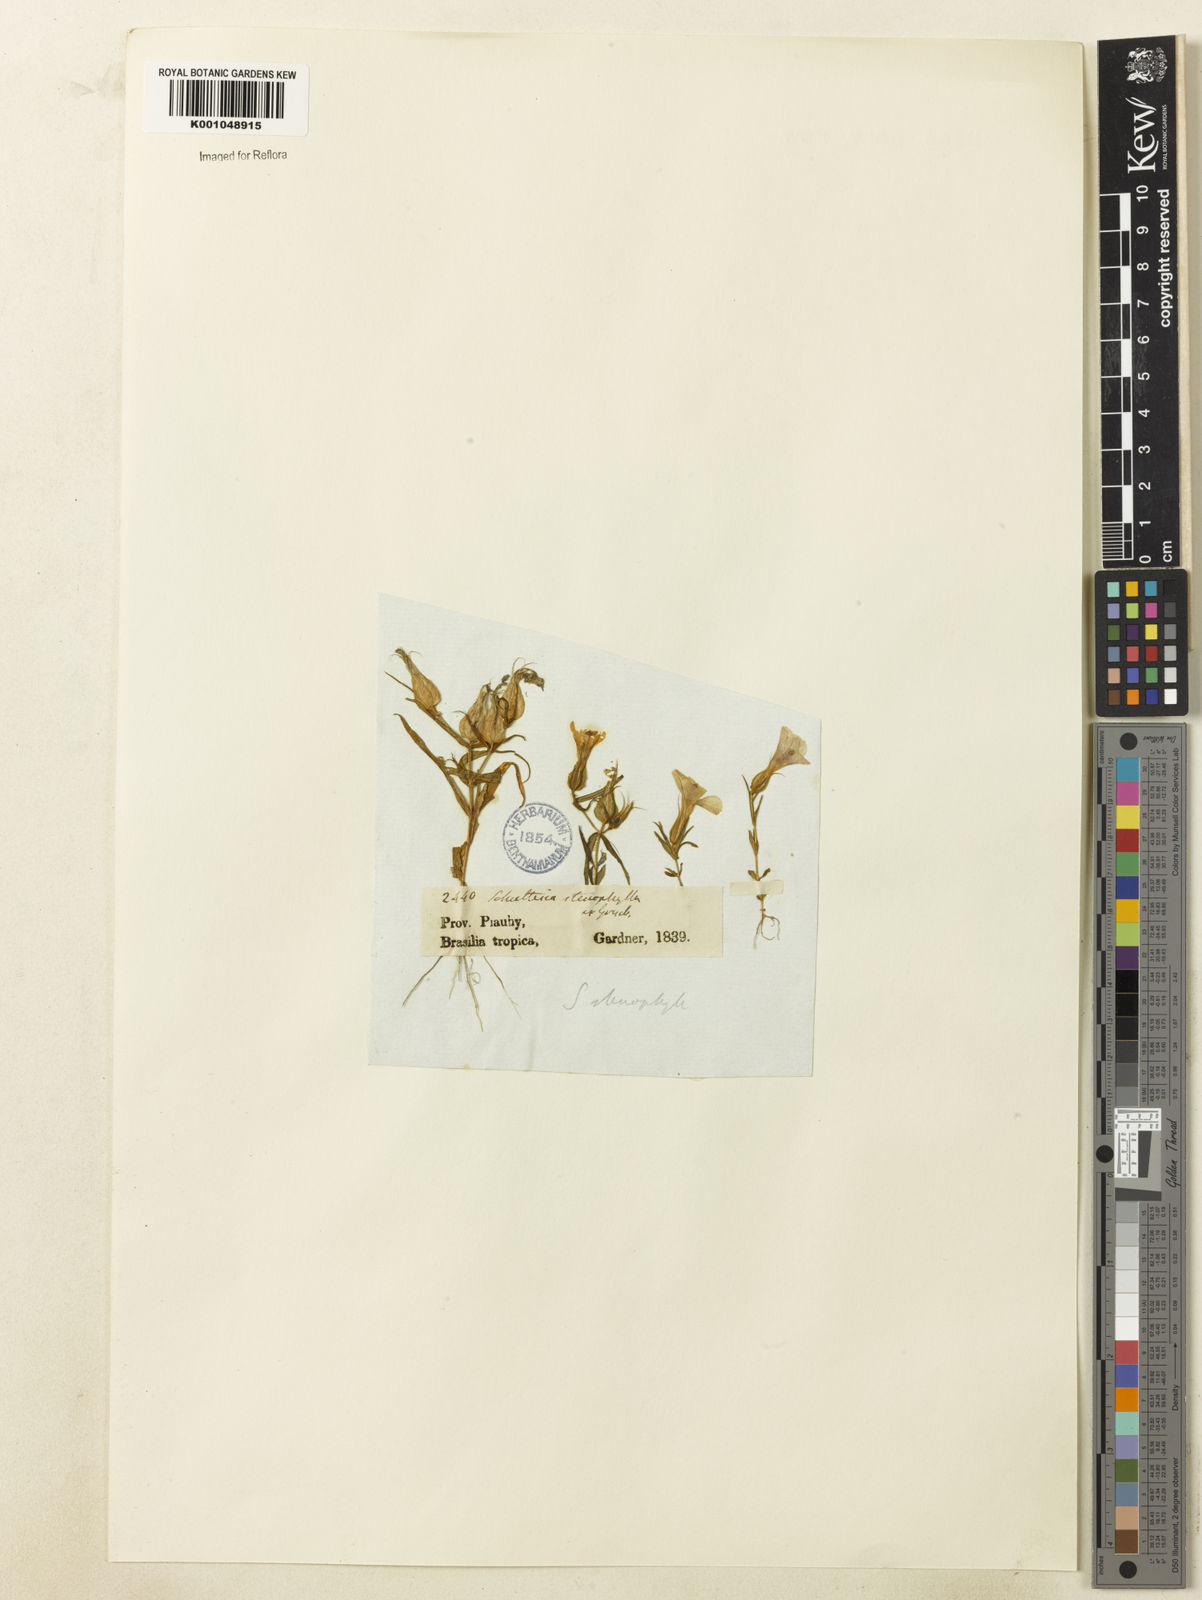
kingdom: Plantae
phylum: Tracheophyta
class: Magnoliopsida
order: Gentianales
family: Gentianaceae
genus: Schultesia
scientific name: Schultesia
